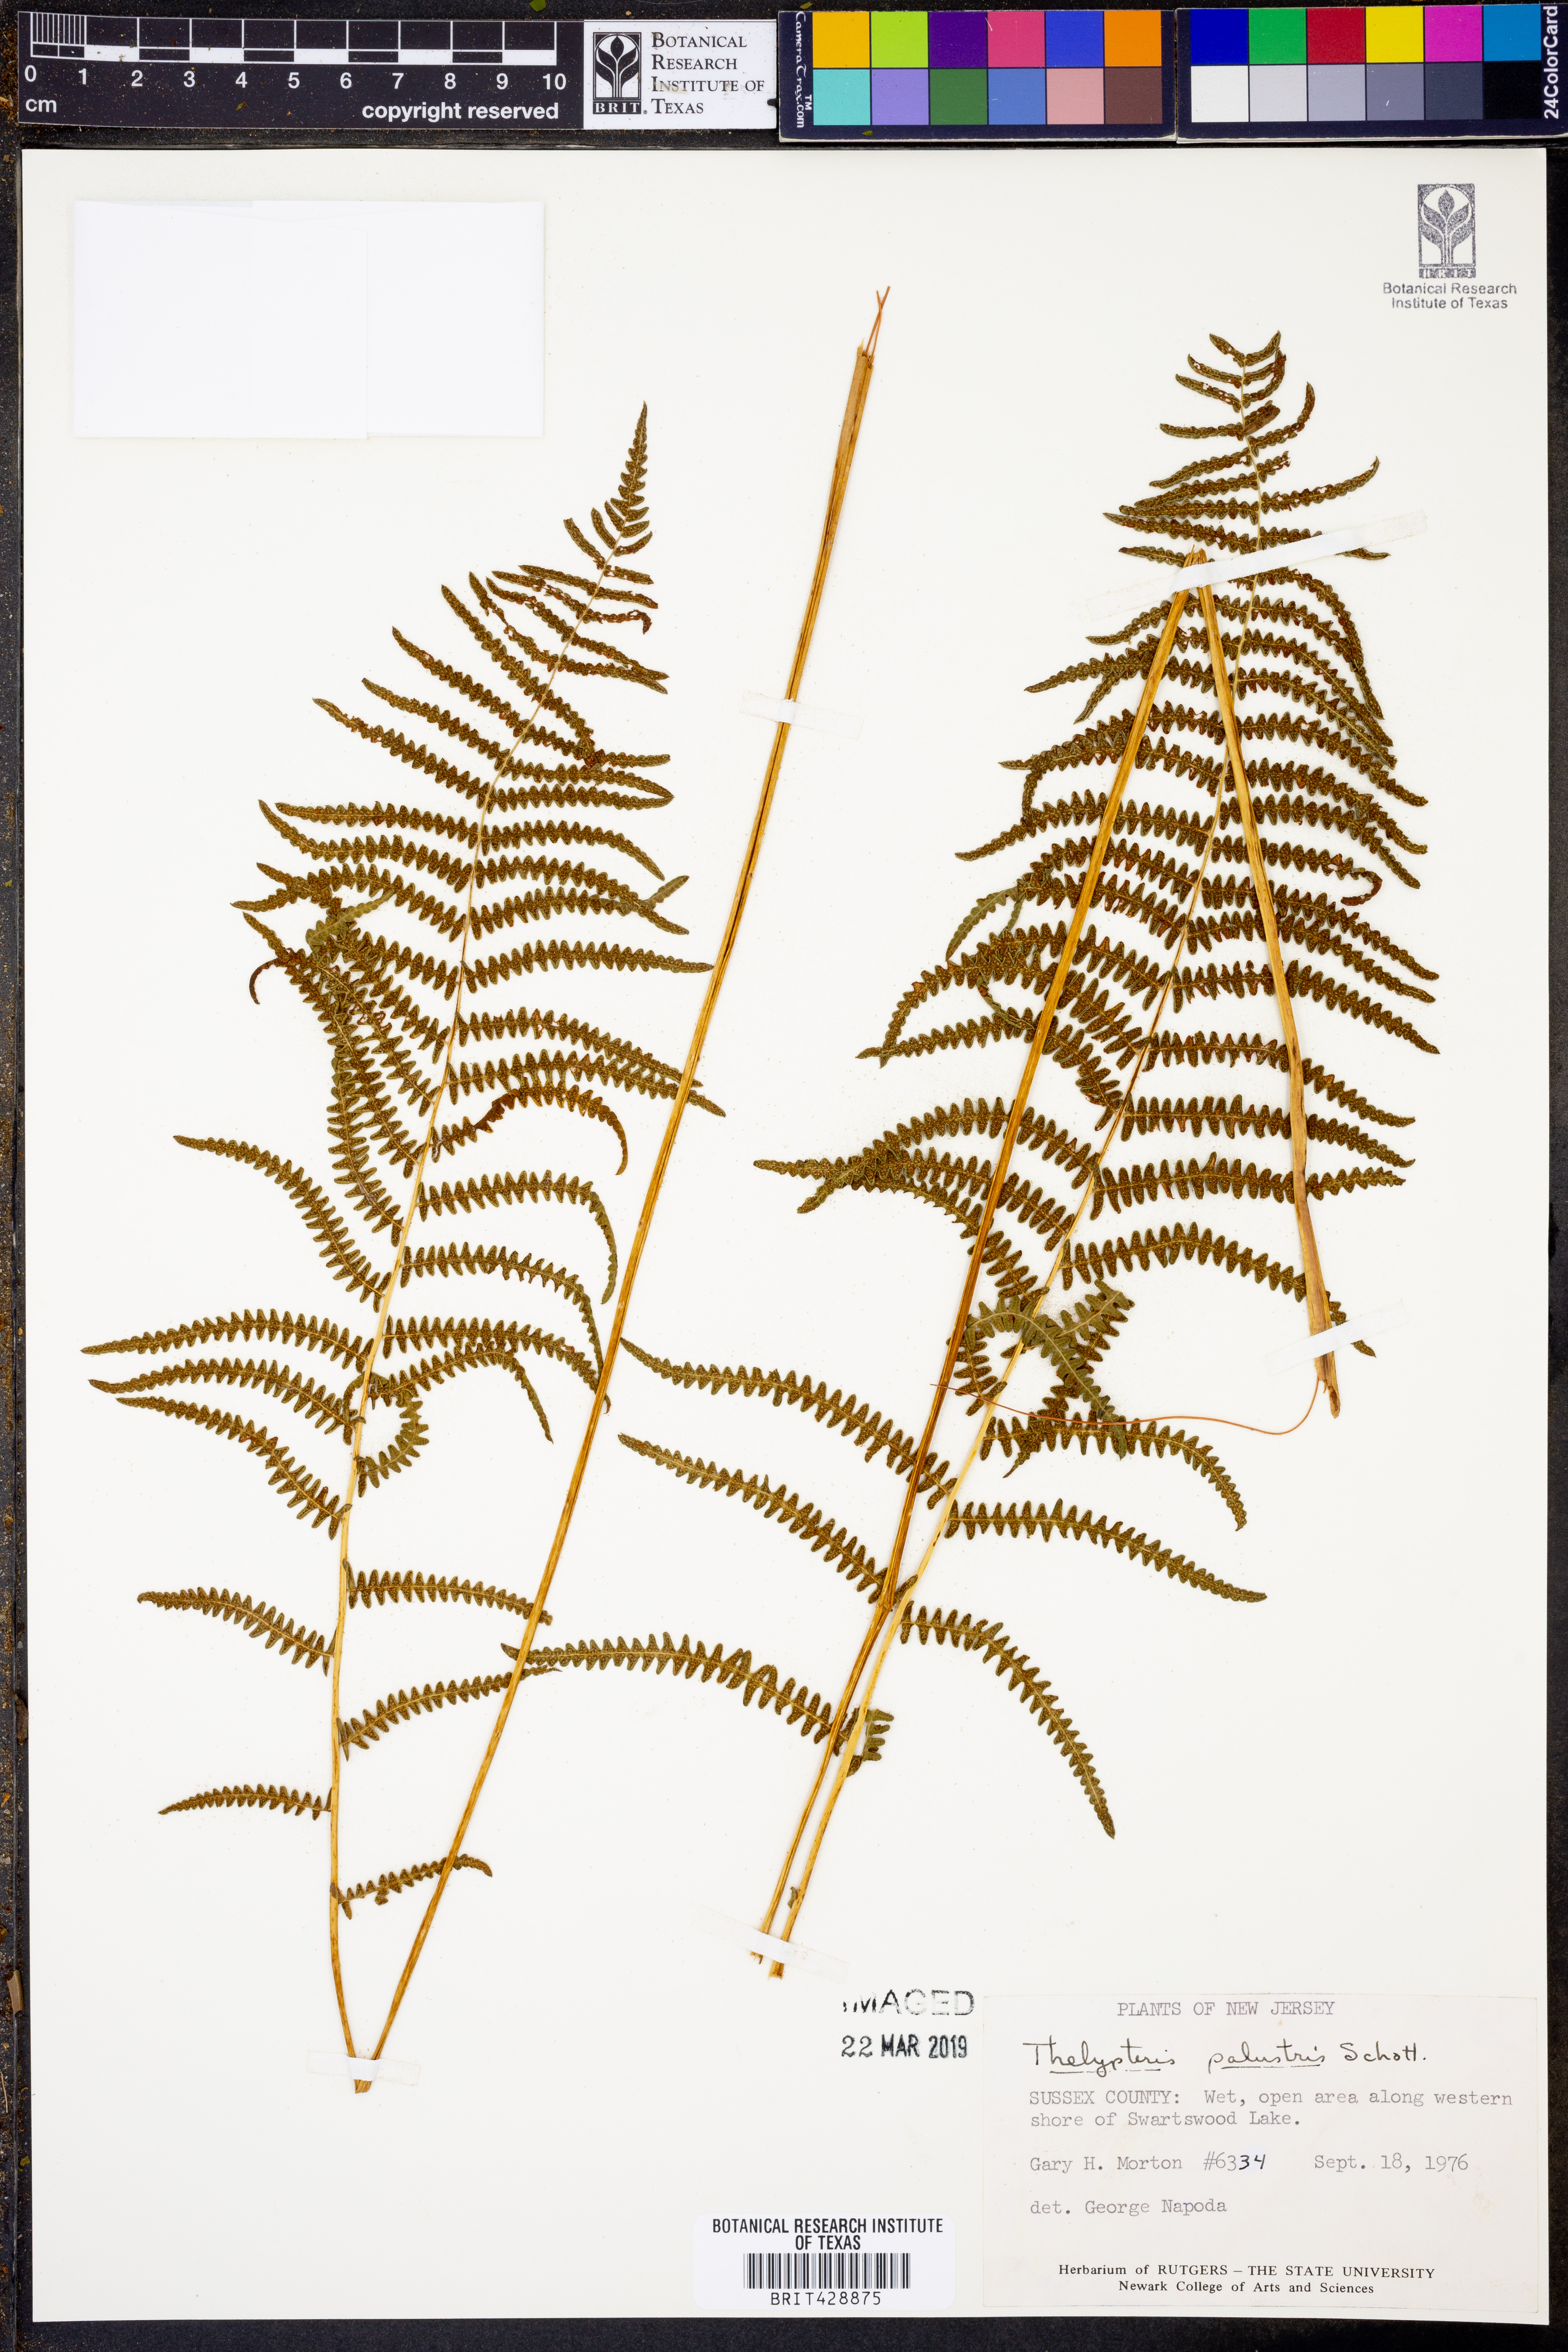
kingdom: Plantae
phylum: Tracheophyta
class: Polypodiopsida
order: Polypodiales
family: Thelypteridaceae
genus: Thelypteris
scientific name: Thelypteris palustris
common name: Marsh fern
